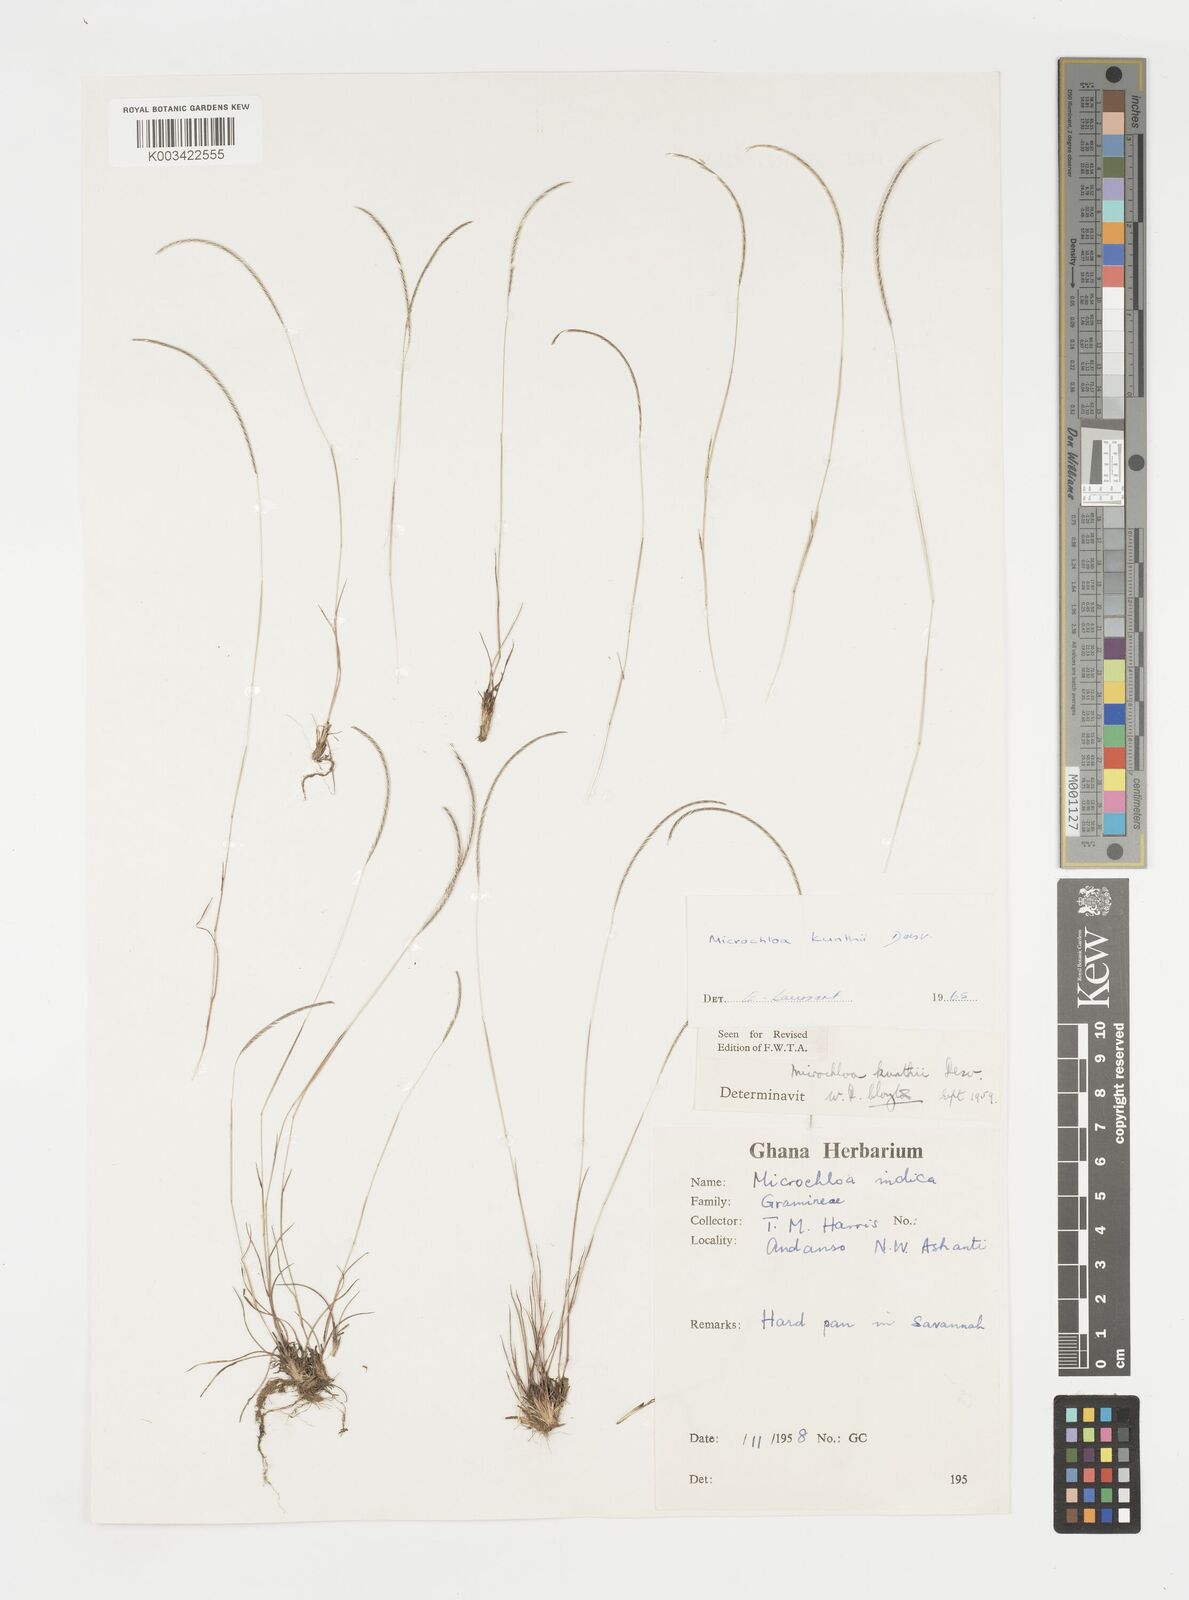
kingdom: Plantae
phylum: Tracheophyta
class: Liliopsida
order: Poales
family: Poaceae
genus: Microchloa
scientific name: Microchloa kunthii
